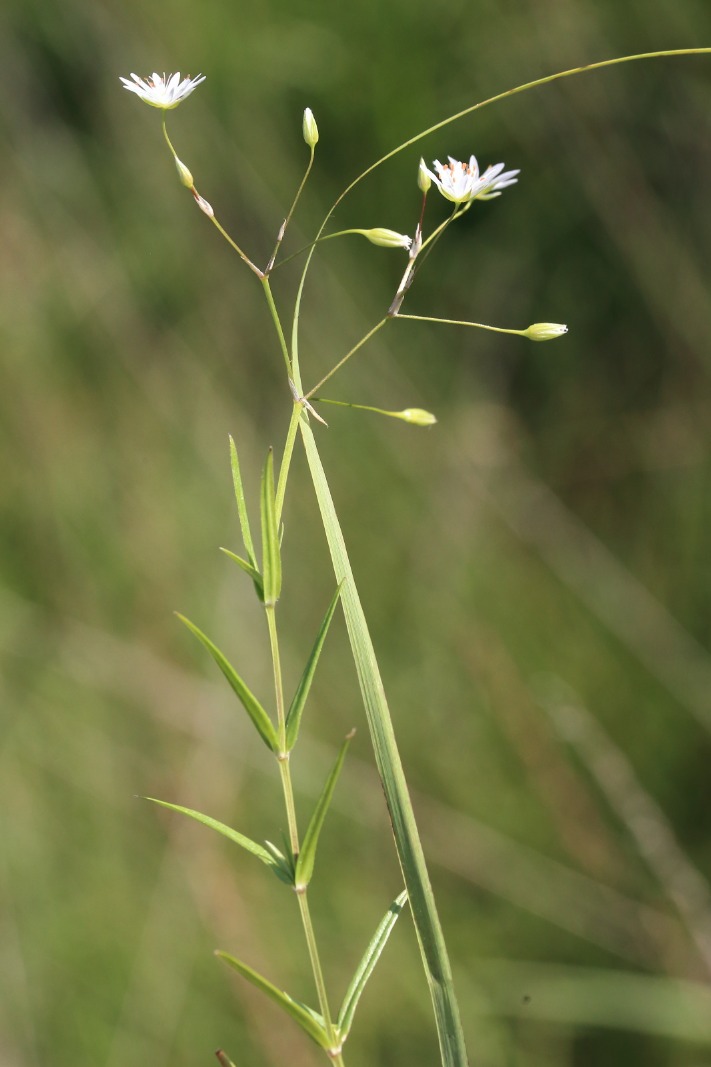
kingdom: Plantae
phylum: Tracheophyta
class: Magnoliopsida
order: Caryophyllales
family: Caryophyllaceae
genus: Stellaria
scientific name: Stellaria graminea
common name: Græsbladet fladstjerne
